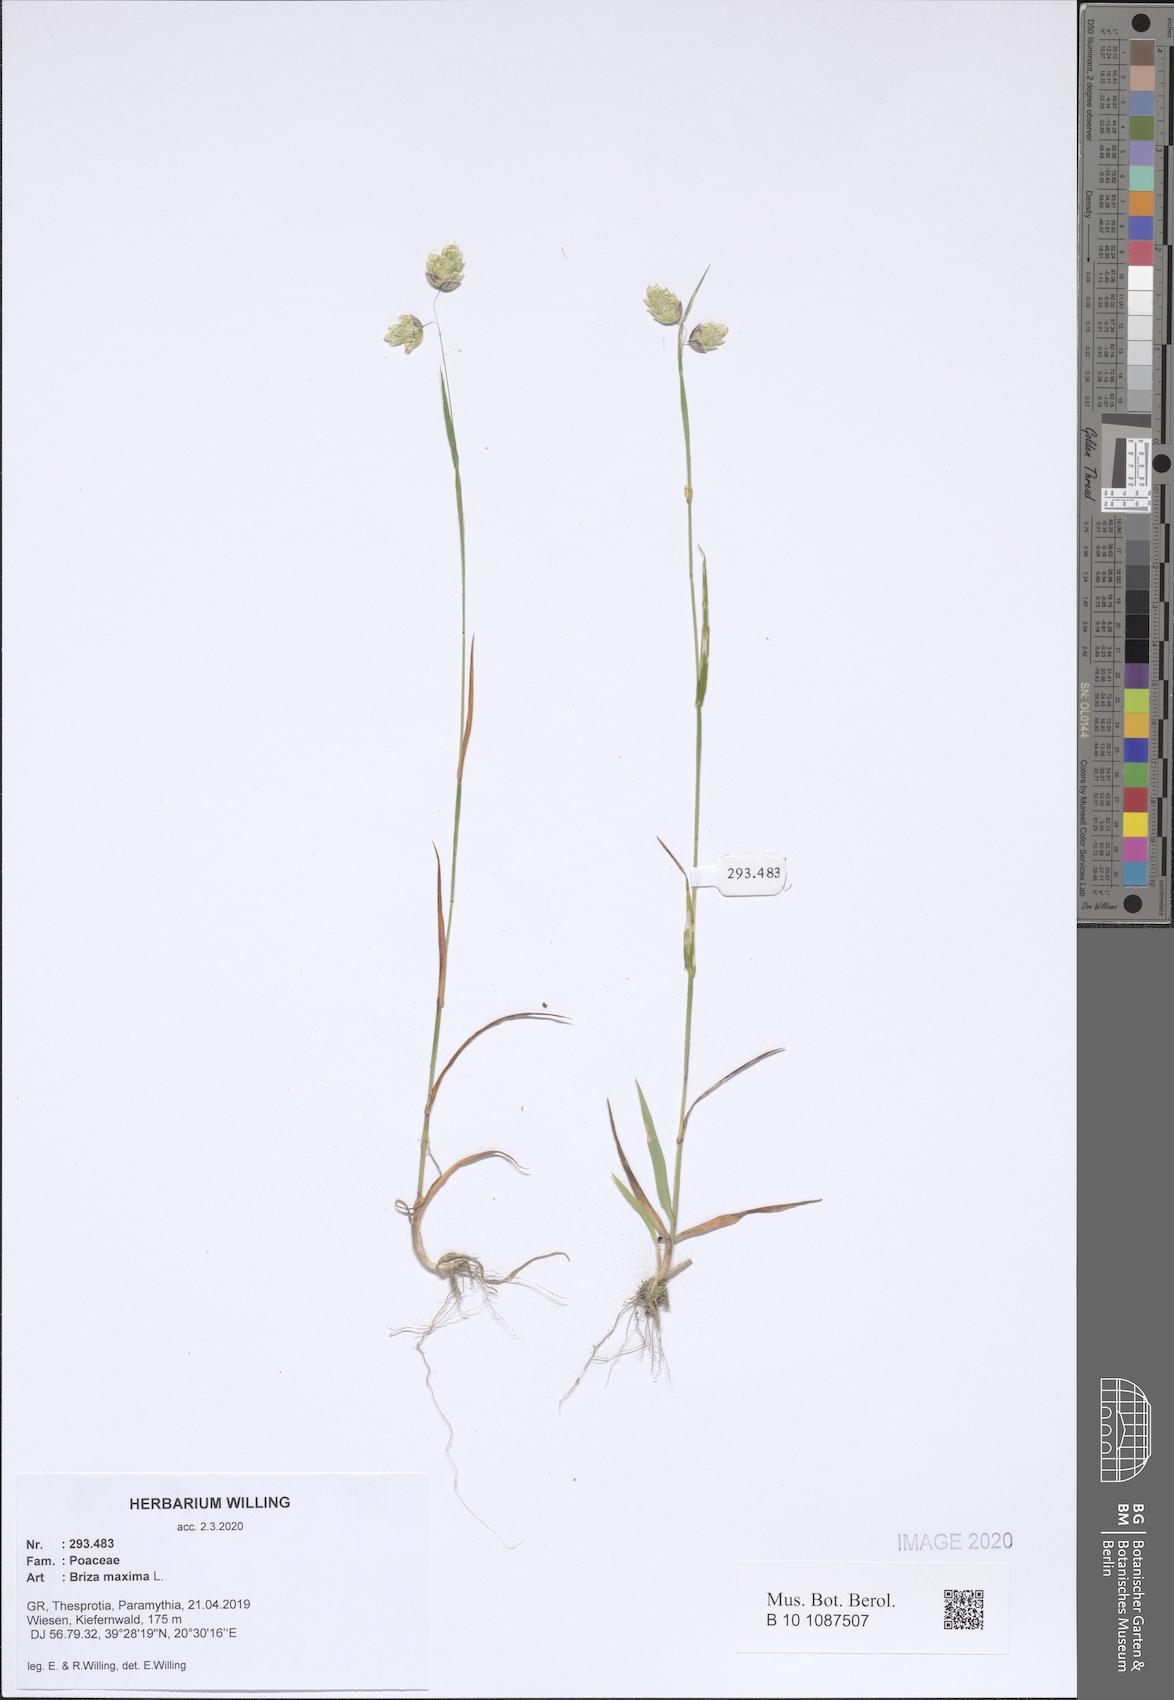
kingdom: Plantae
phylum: Tracheophyta
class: Liliopsida
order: Poales
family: Poaceae
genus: Briza
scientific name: Briza maxima
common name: Big quakinggrass
